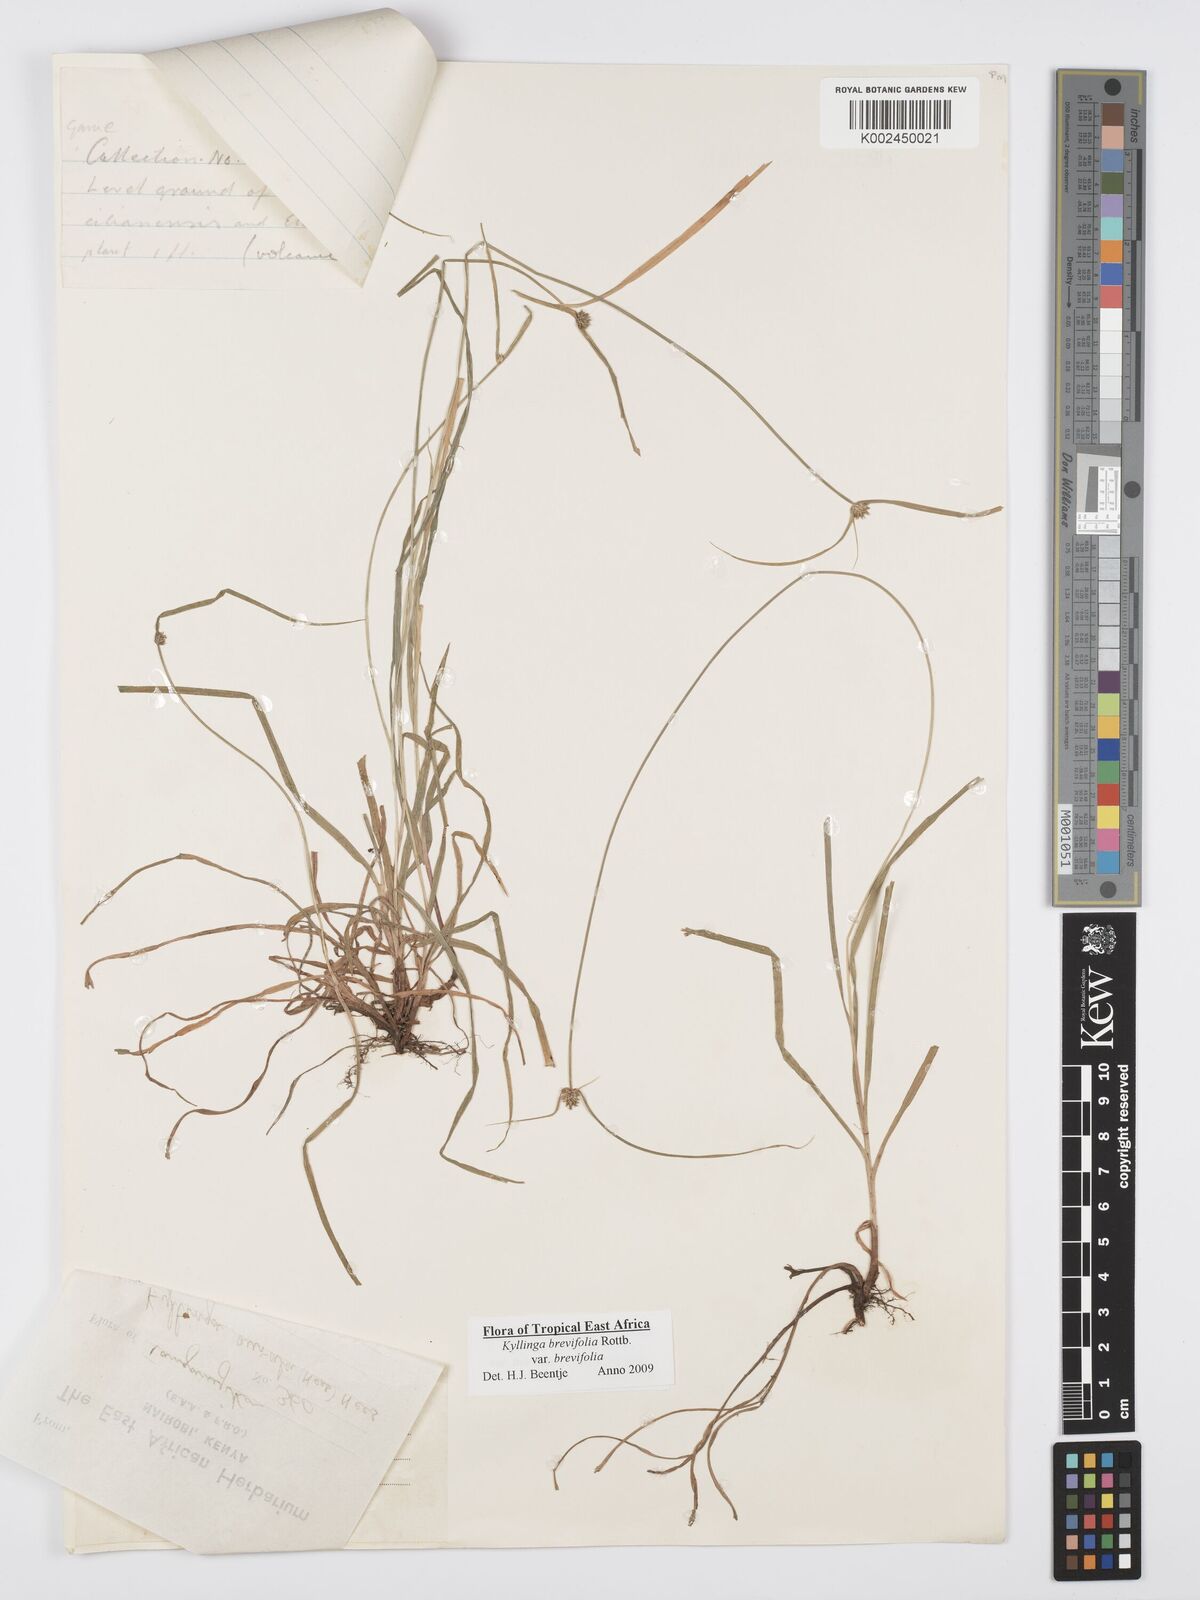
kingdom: Plantae
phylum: Tracheophyta
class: Liliopsida
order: Poales
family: Cyperaceae
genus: Cyperus
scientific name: Cyperus brevifolius
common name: Globe kyllinga
